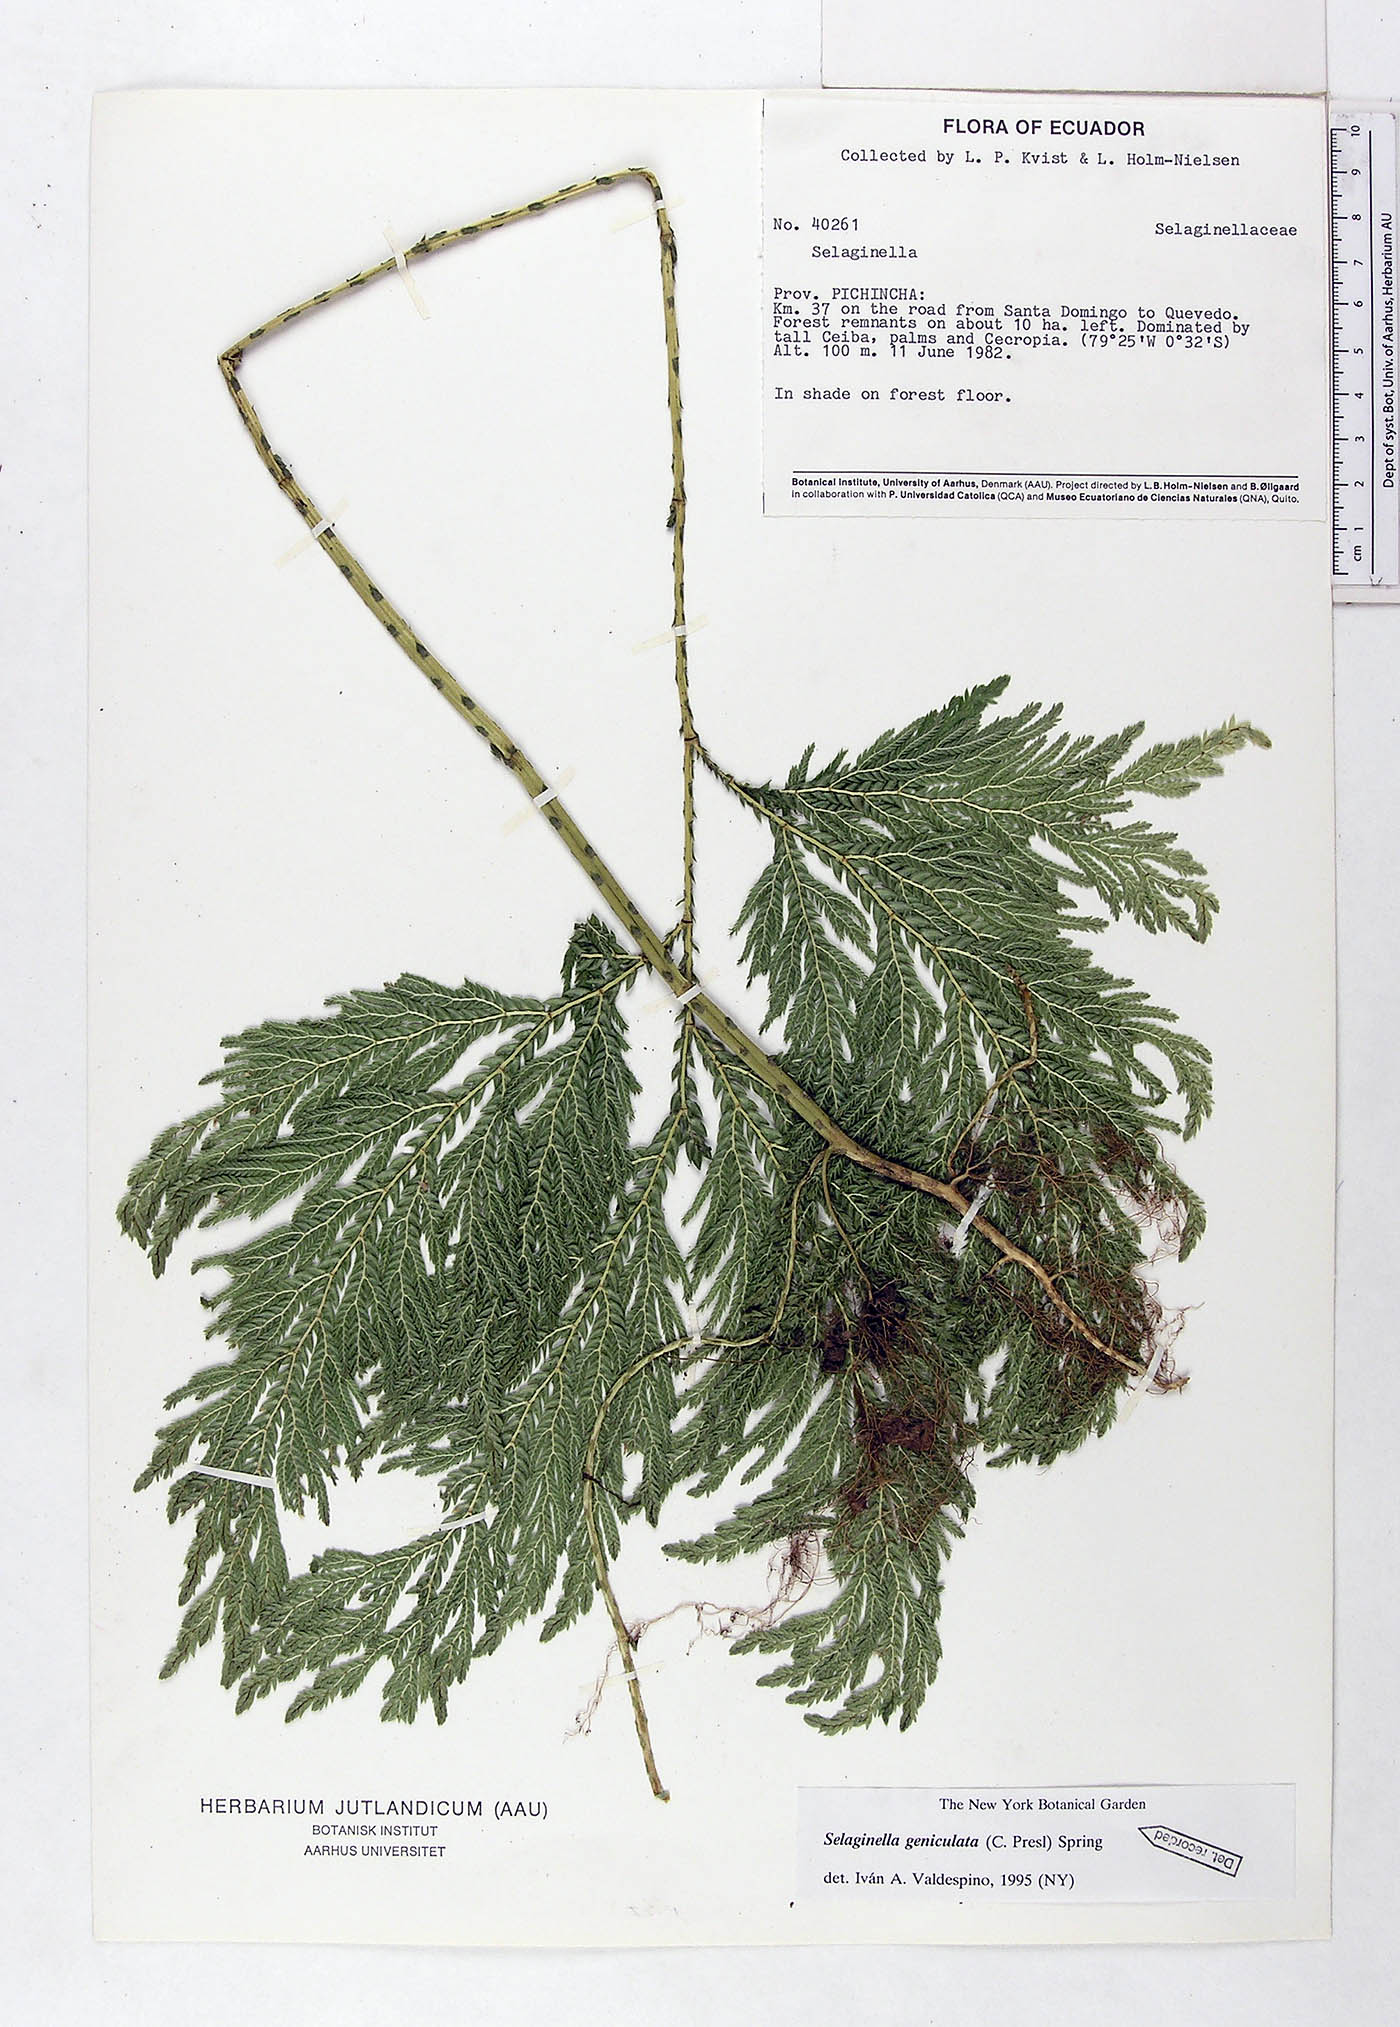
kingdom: Plantae
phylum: Tracheophyta
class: Lycopodiopsida
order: Selaginellales
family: Selaginellaceae
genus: Selaginella
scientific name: Selaginella geniculata
